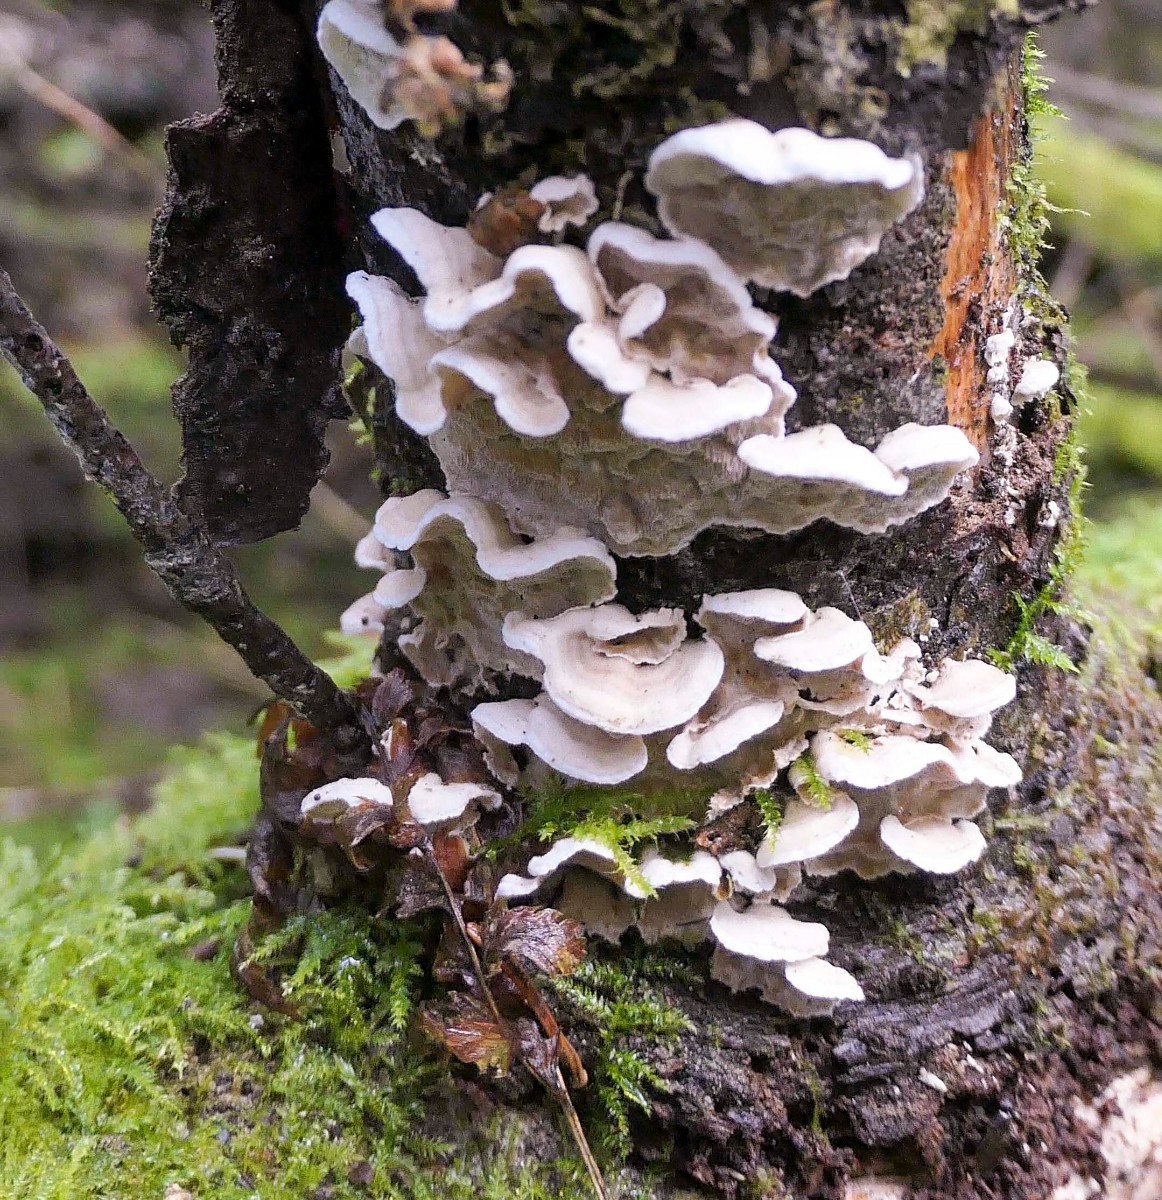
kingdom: Fungi
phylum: Basidiomycota
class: Agaricomycetes
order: Polyporales
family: Incrustoporiaceae
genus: Skeletocutis
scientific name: Skeletocutis carneogrisea
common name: rødgrå krystalporesvamp
